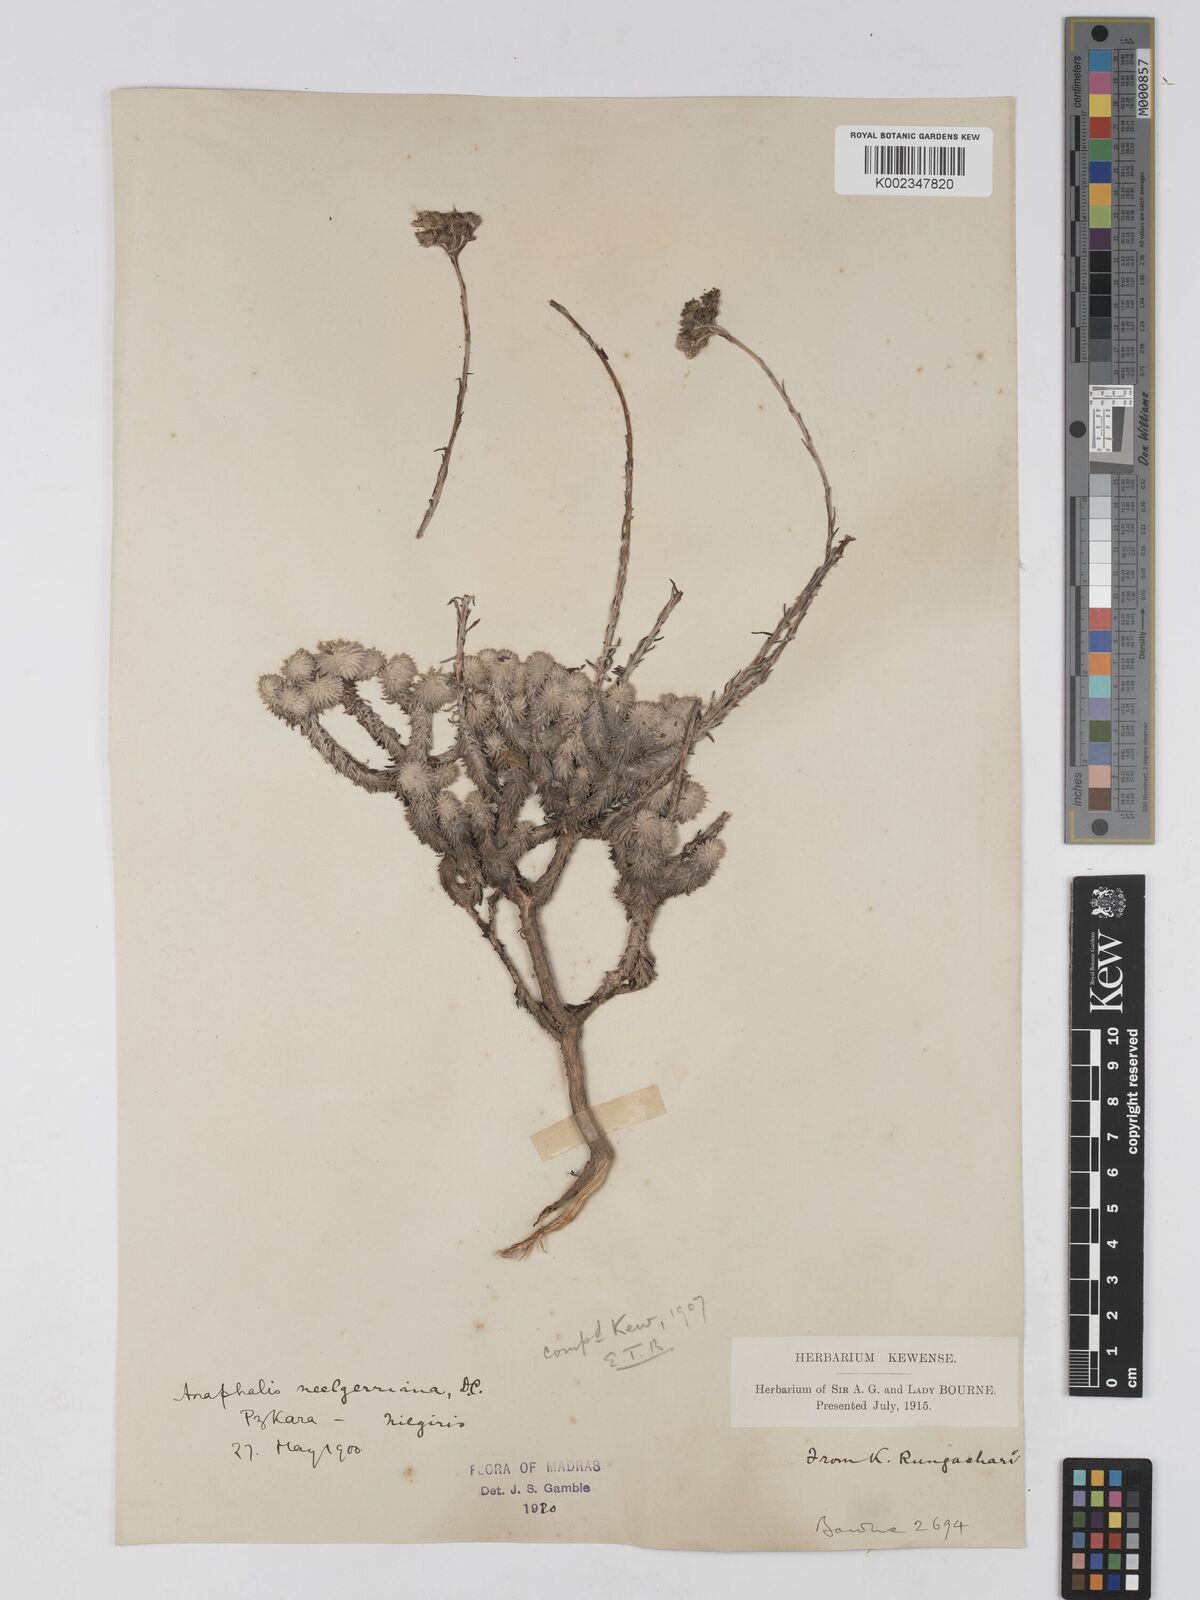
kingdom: Plantae
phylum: Tracheophyta
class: Magnoliopsida
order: Asterales
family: Asteraceae
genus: Anaphalis
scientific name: Anaphalis neelgerryana
